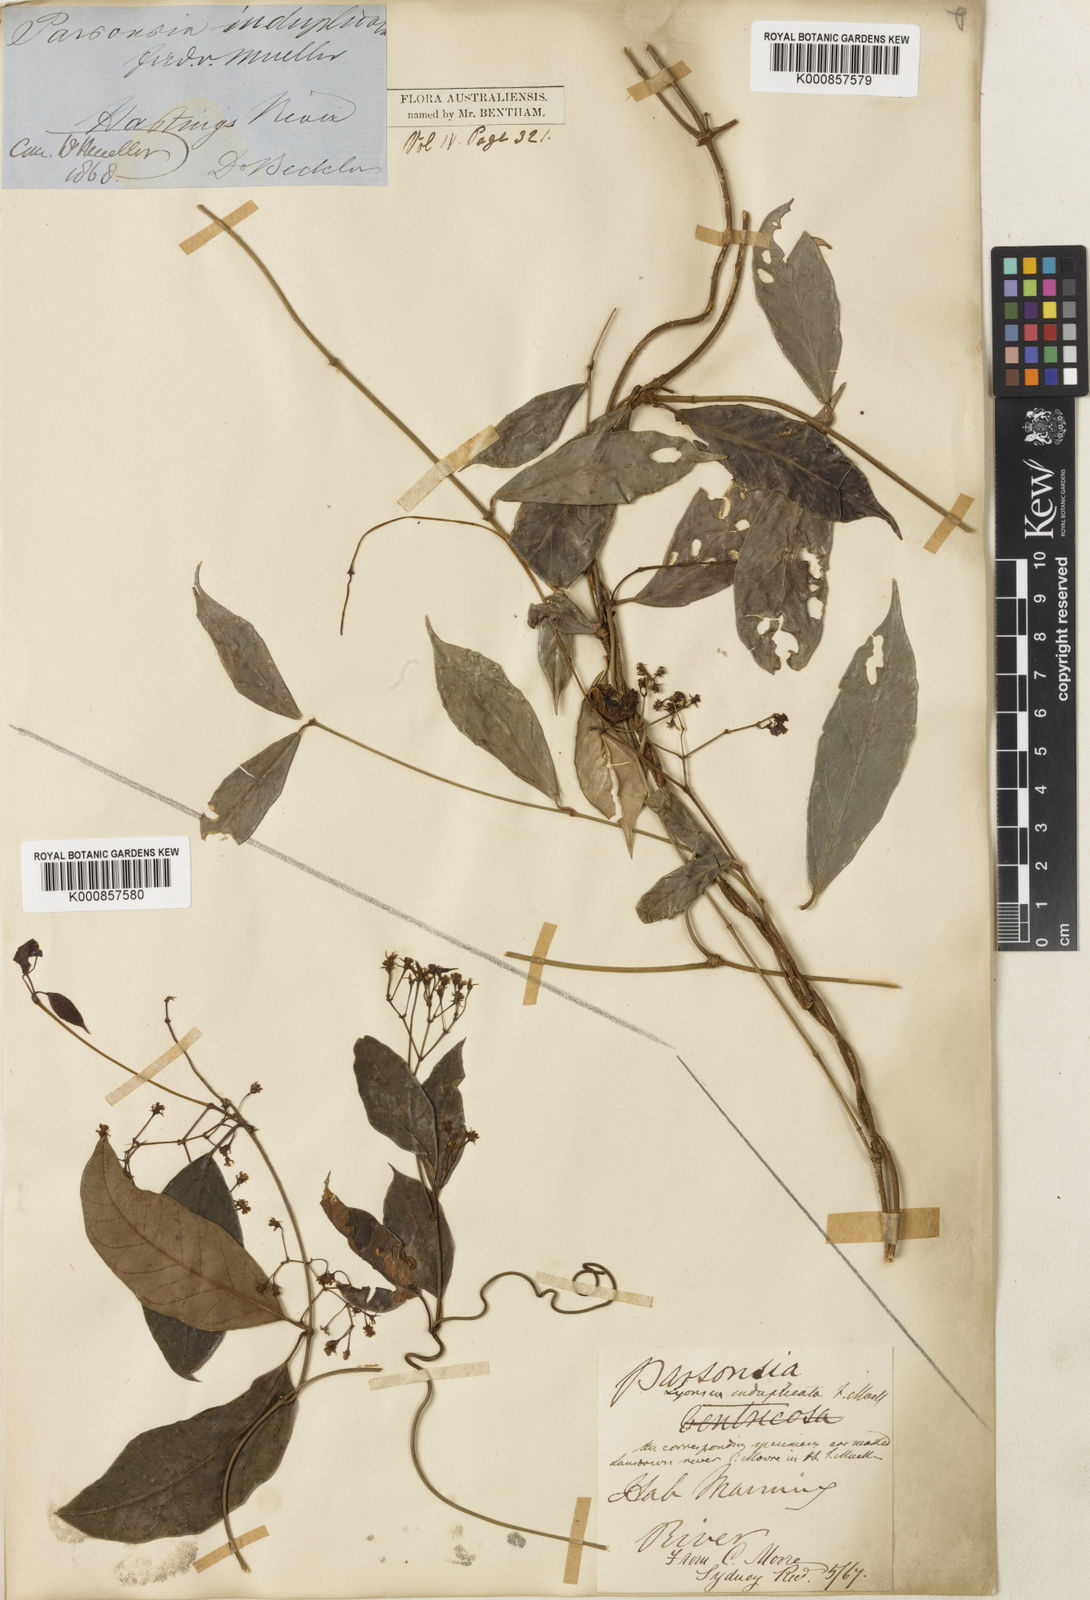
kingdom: Plantae
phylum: Tracheophyta
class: Magnoliopsida
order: Gentianales
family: Apocynaceae
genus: Parsonsia
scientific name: Parsonsia induplicata
